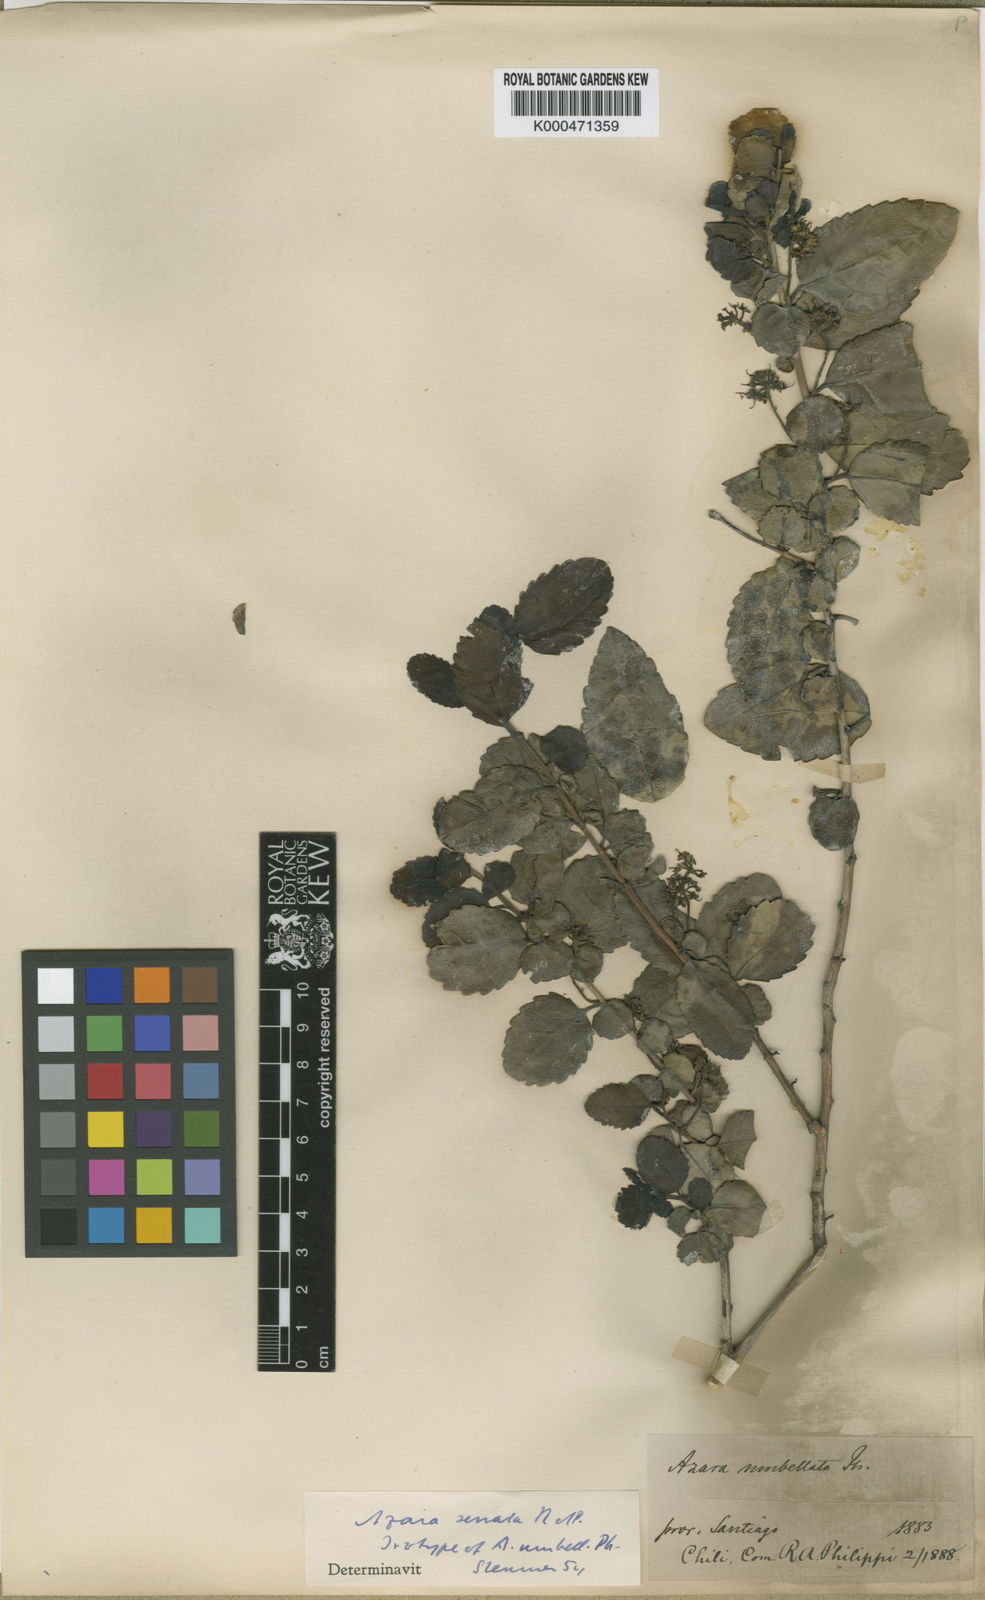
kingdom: Plantae
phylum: Tracheophyta
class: Magnoliopsida
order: Malpighiales
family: Salicaceae
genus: Azara
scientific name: Azara serrata
